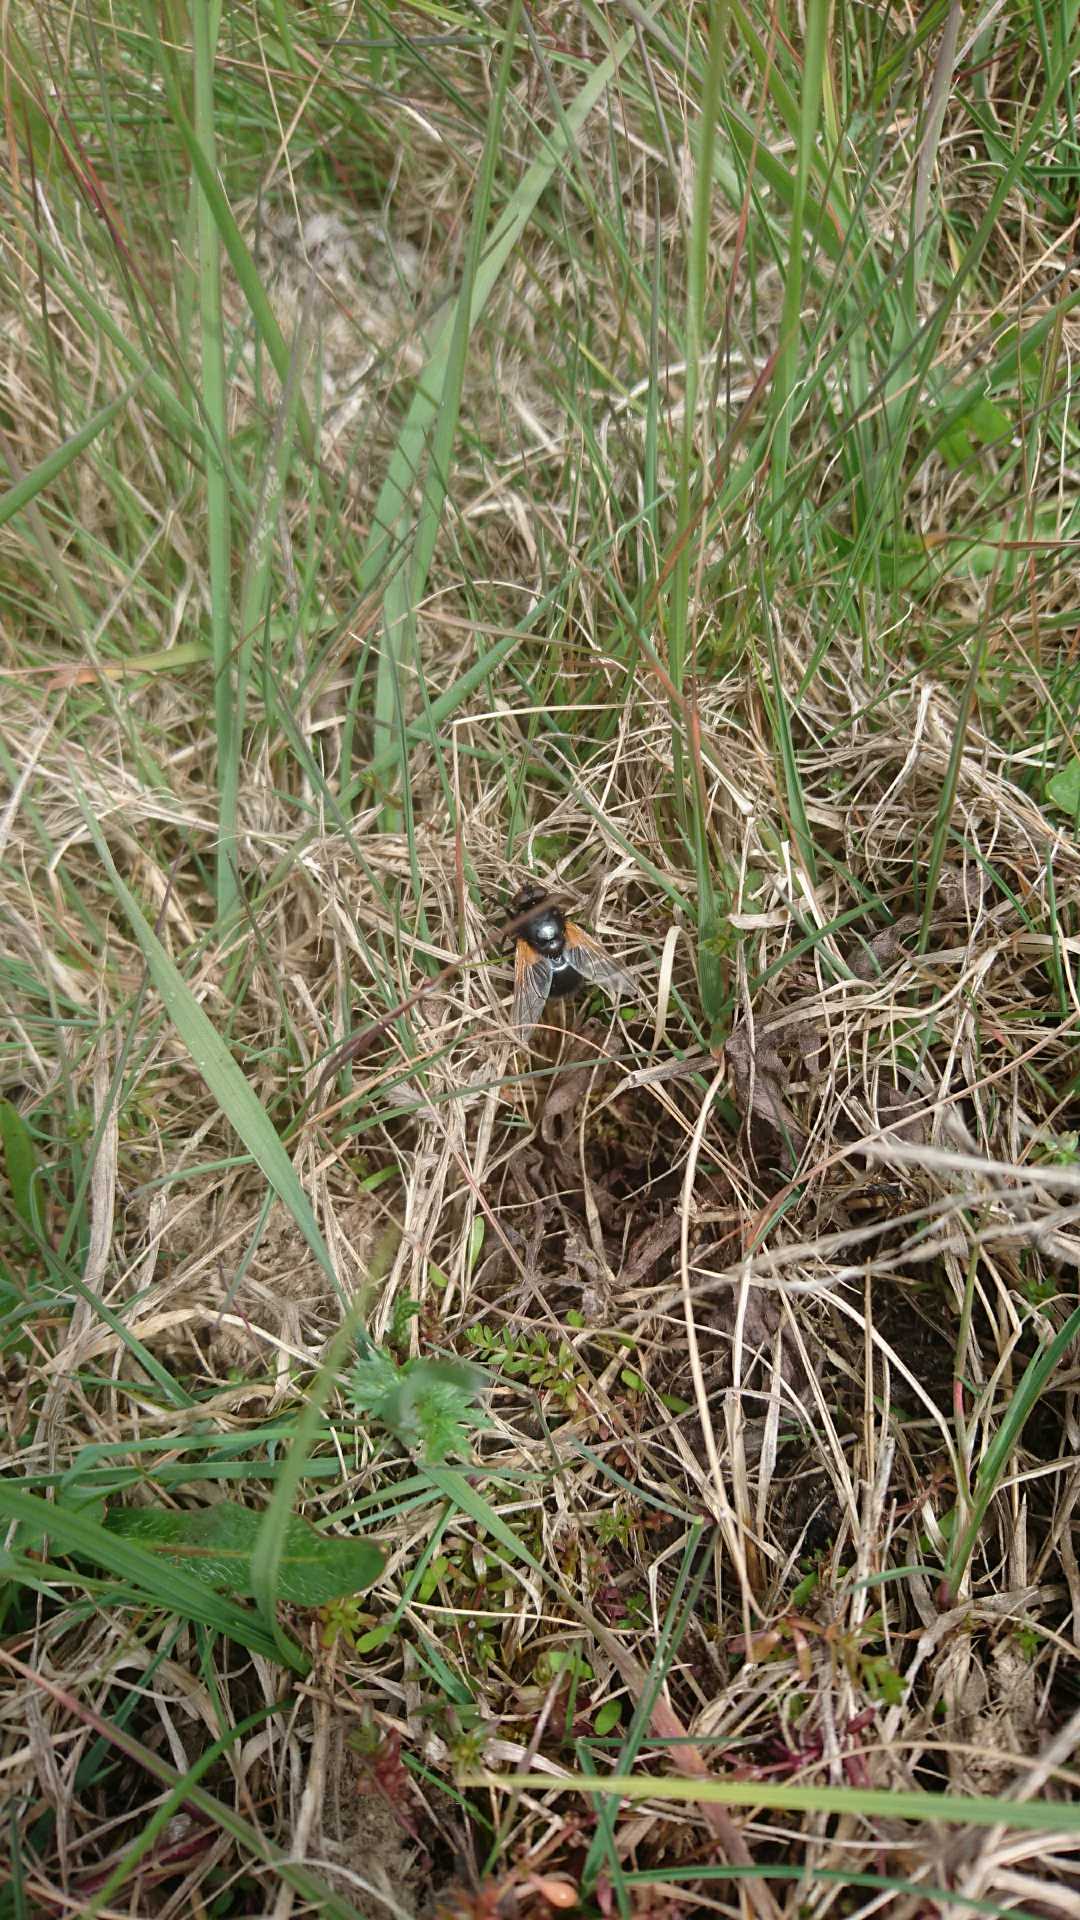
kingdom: Animalia
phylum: Arthropoda
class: Insecta
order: Diptera
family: Muscidae
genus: Mesembrina
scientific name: Mesembrina meridiana
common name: Gulvinget flue
